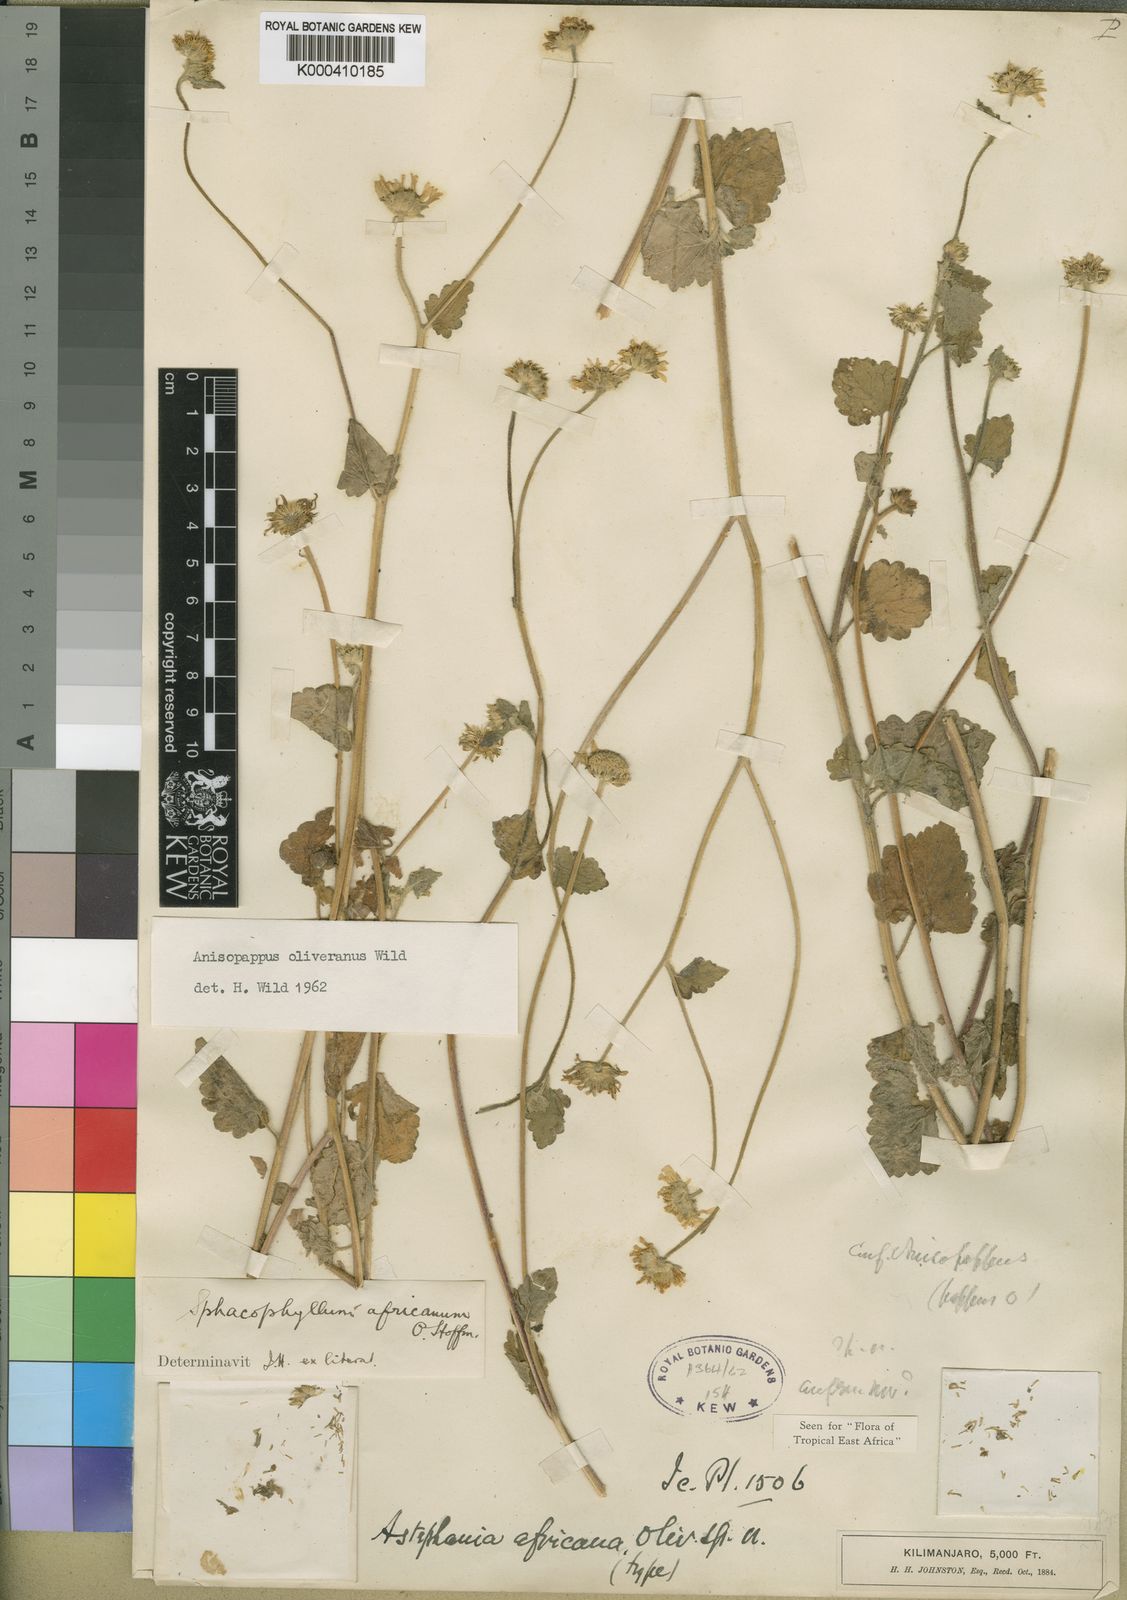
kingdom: Plantae
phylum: Tracheophyta
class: Magnoliopsida
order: Asterales
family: Asteraceae
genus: Anisopappus
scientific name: Anisopappus chinensis
